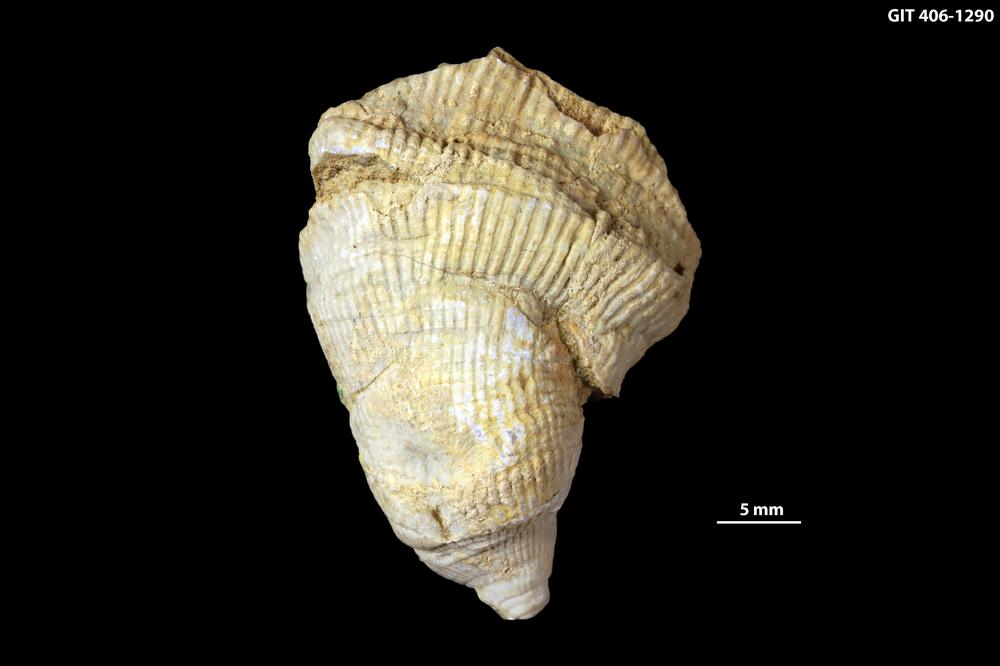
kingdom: Animalia
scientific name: Animalia
